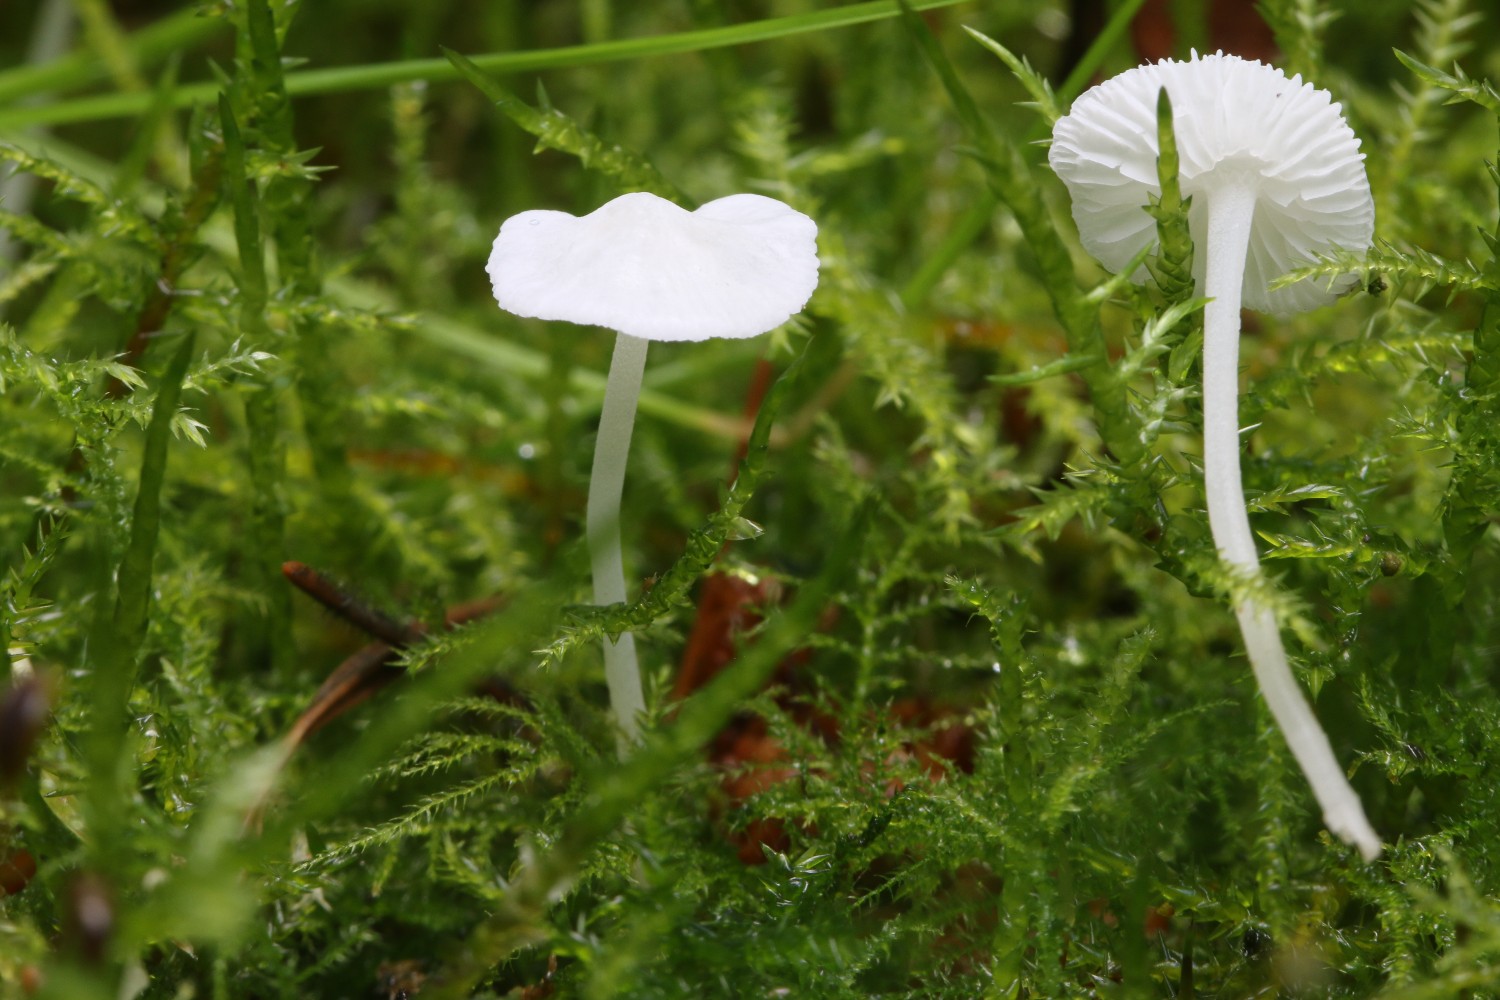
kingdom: Fungi
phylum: Basidiomycota
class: Agaricomycetes
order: Agaricales
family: Mycenaceae
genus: Hemimycena
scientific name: Hemimycena lactea
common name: mælkehvid huesvamp
